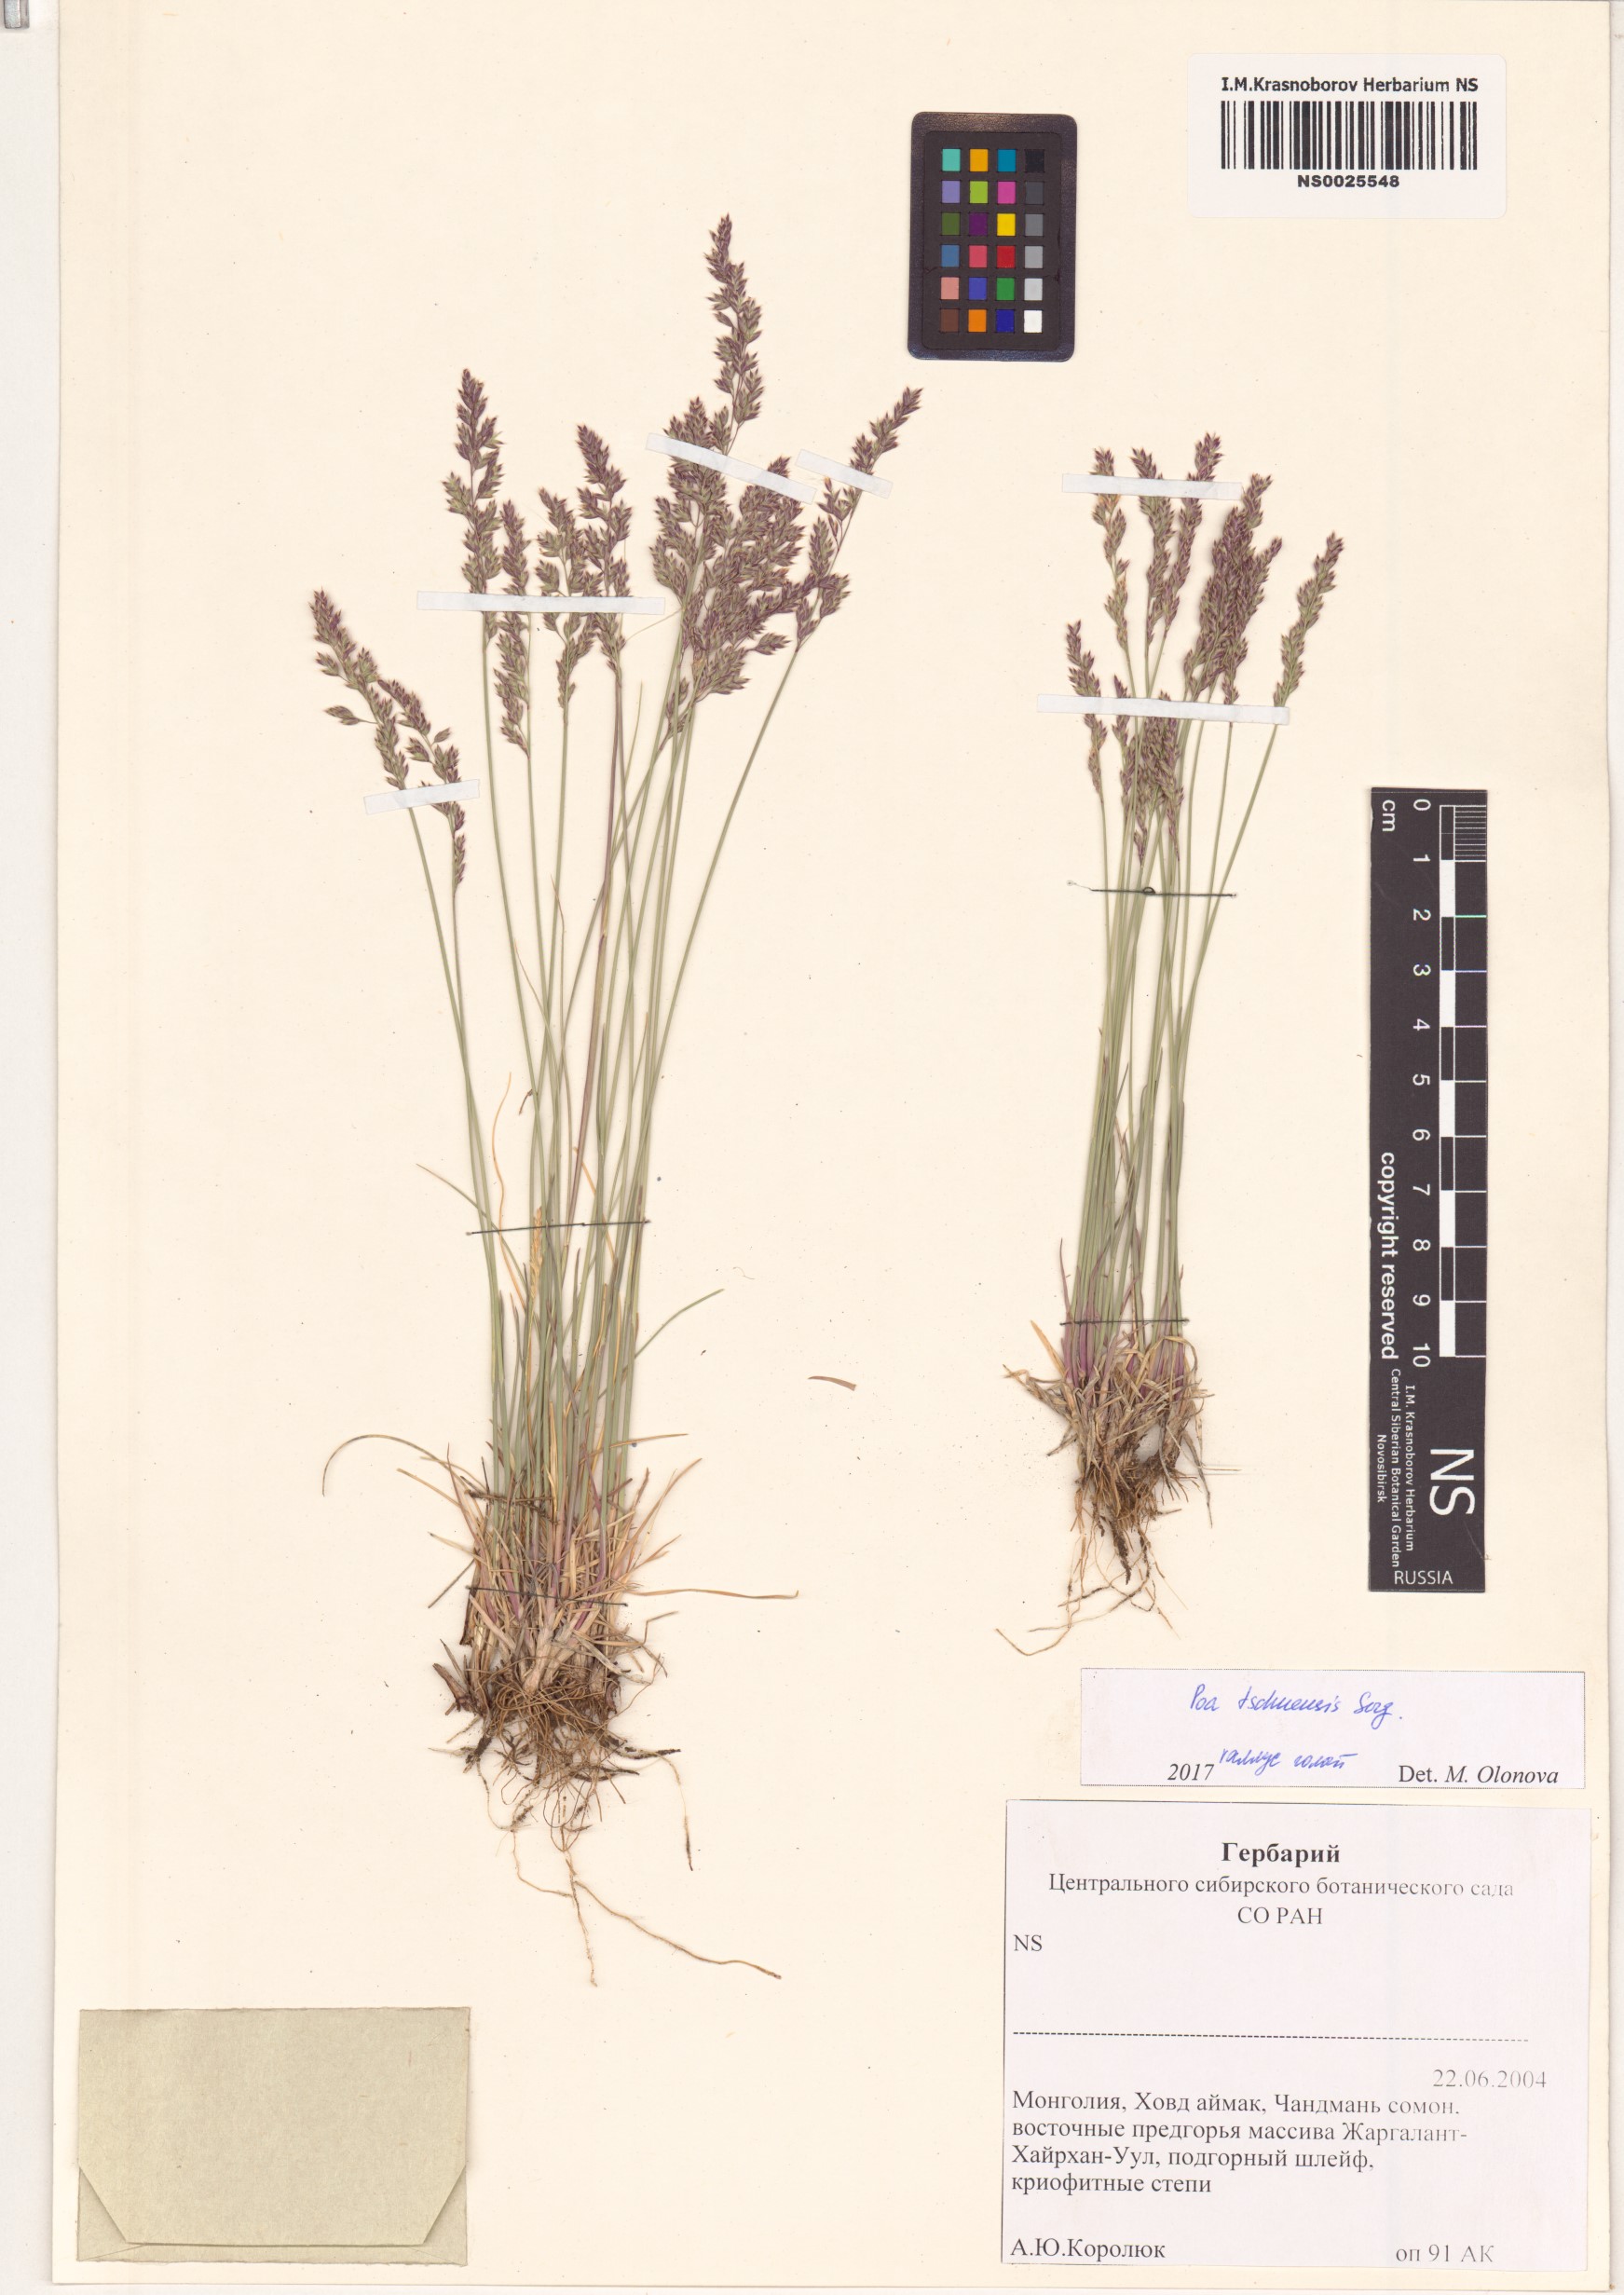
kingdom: Plantae
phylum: Tracheophyta
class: Liliopsida
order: Poales
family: Poaceae
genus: Poa
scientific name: Poa
